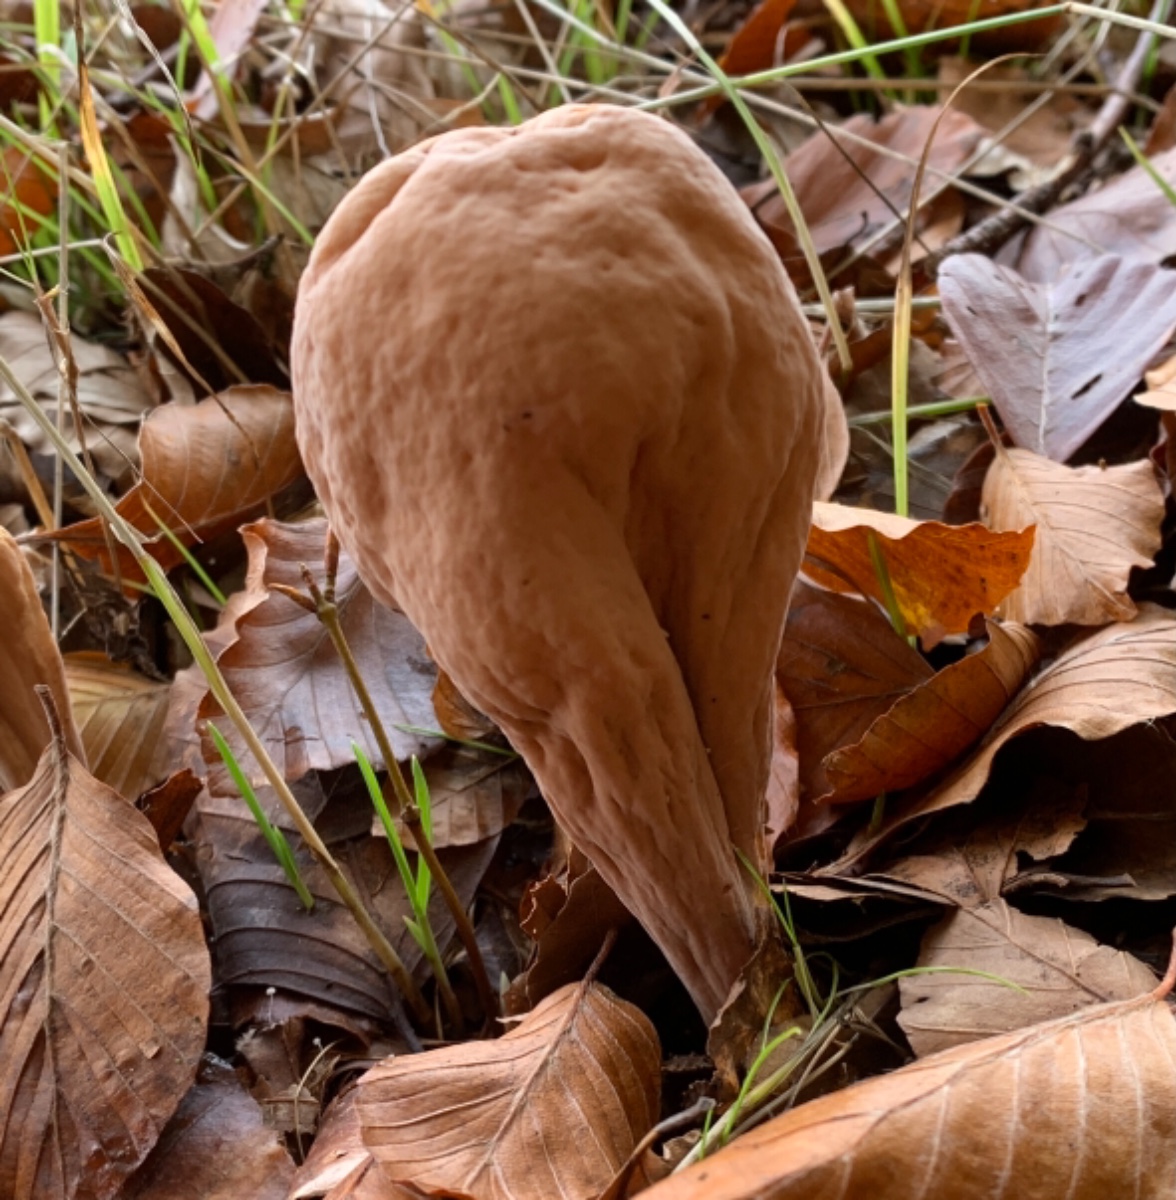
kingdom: Fungi
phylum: Basidiomycota
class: Agaricomycetes
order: Gomphales
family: Clavariadelphaceae
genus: Clavariadelphus
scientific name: Clavariadelphus pistillaris
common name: herkules-kæmpekølle
